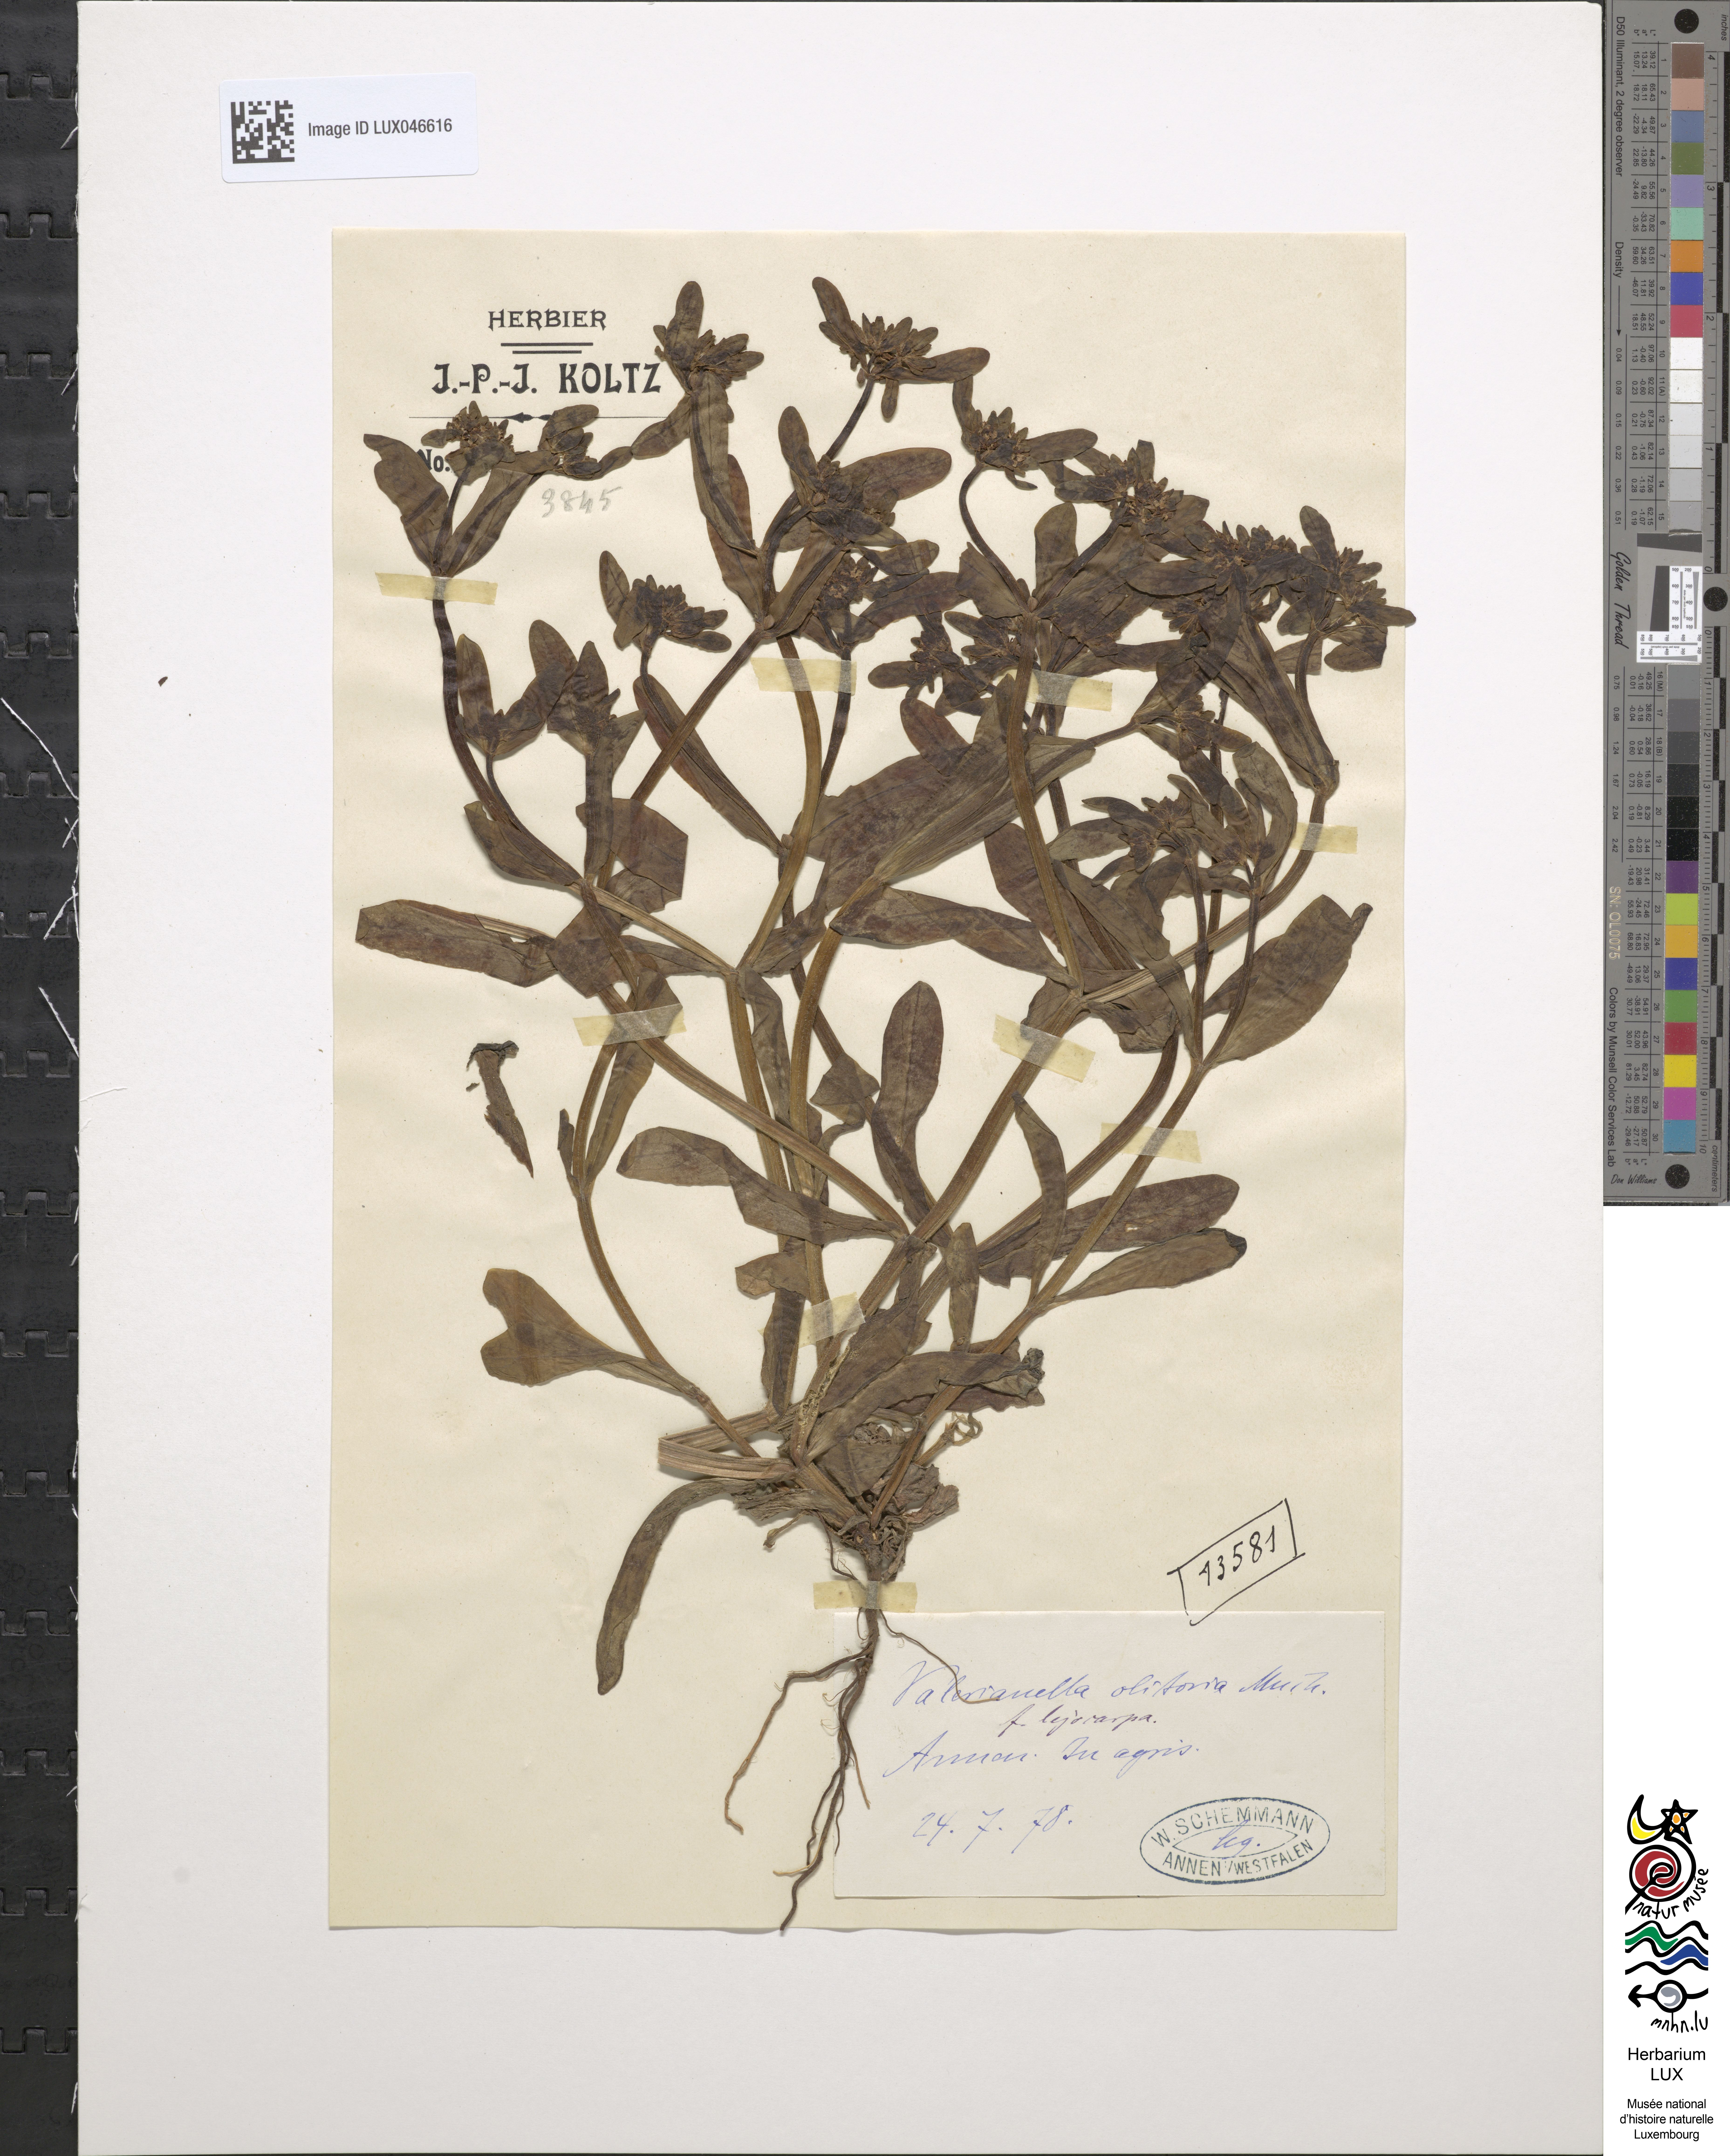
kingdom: Plantae
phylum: Tracheophyta
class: Magnoliopsida
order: Dipsacales
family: Caprifoliaceae
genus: Valerianella
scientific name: Valerianella locusta
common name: Common cornsalad
